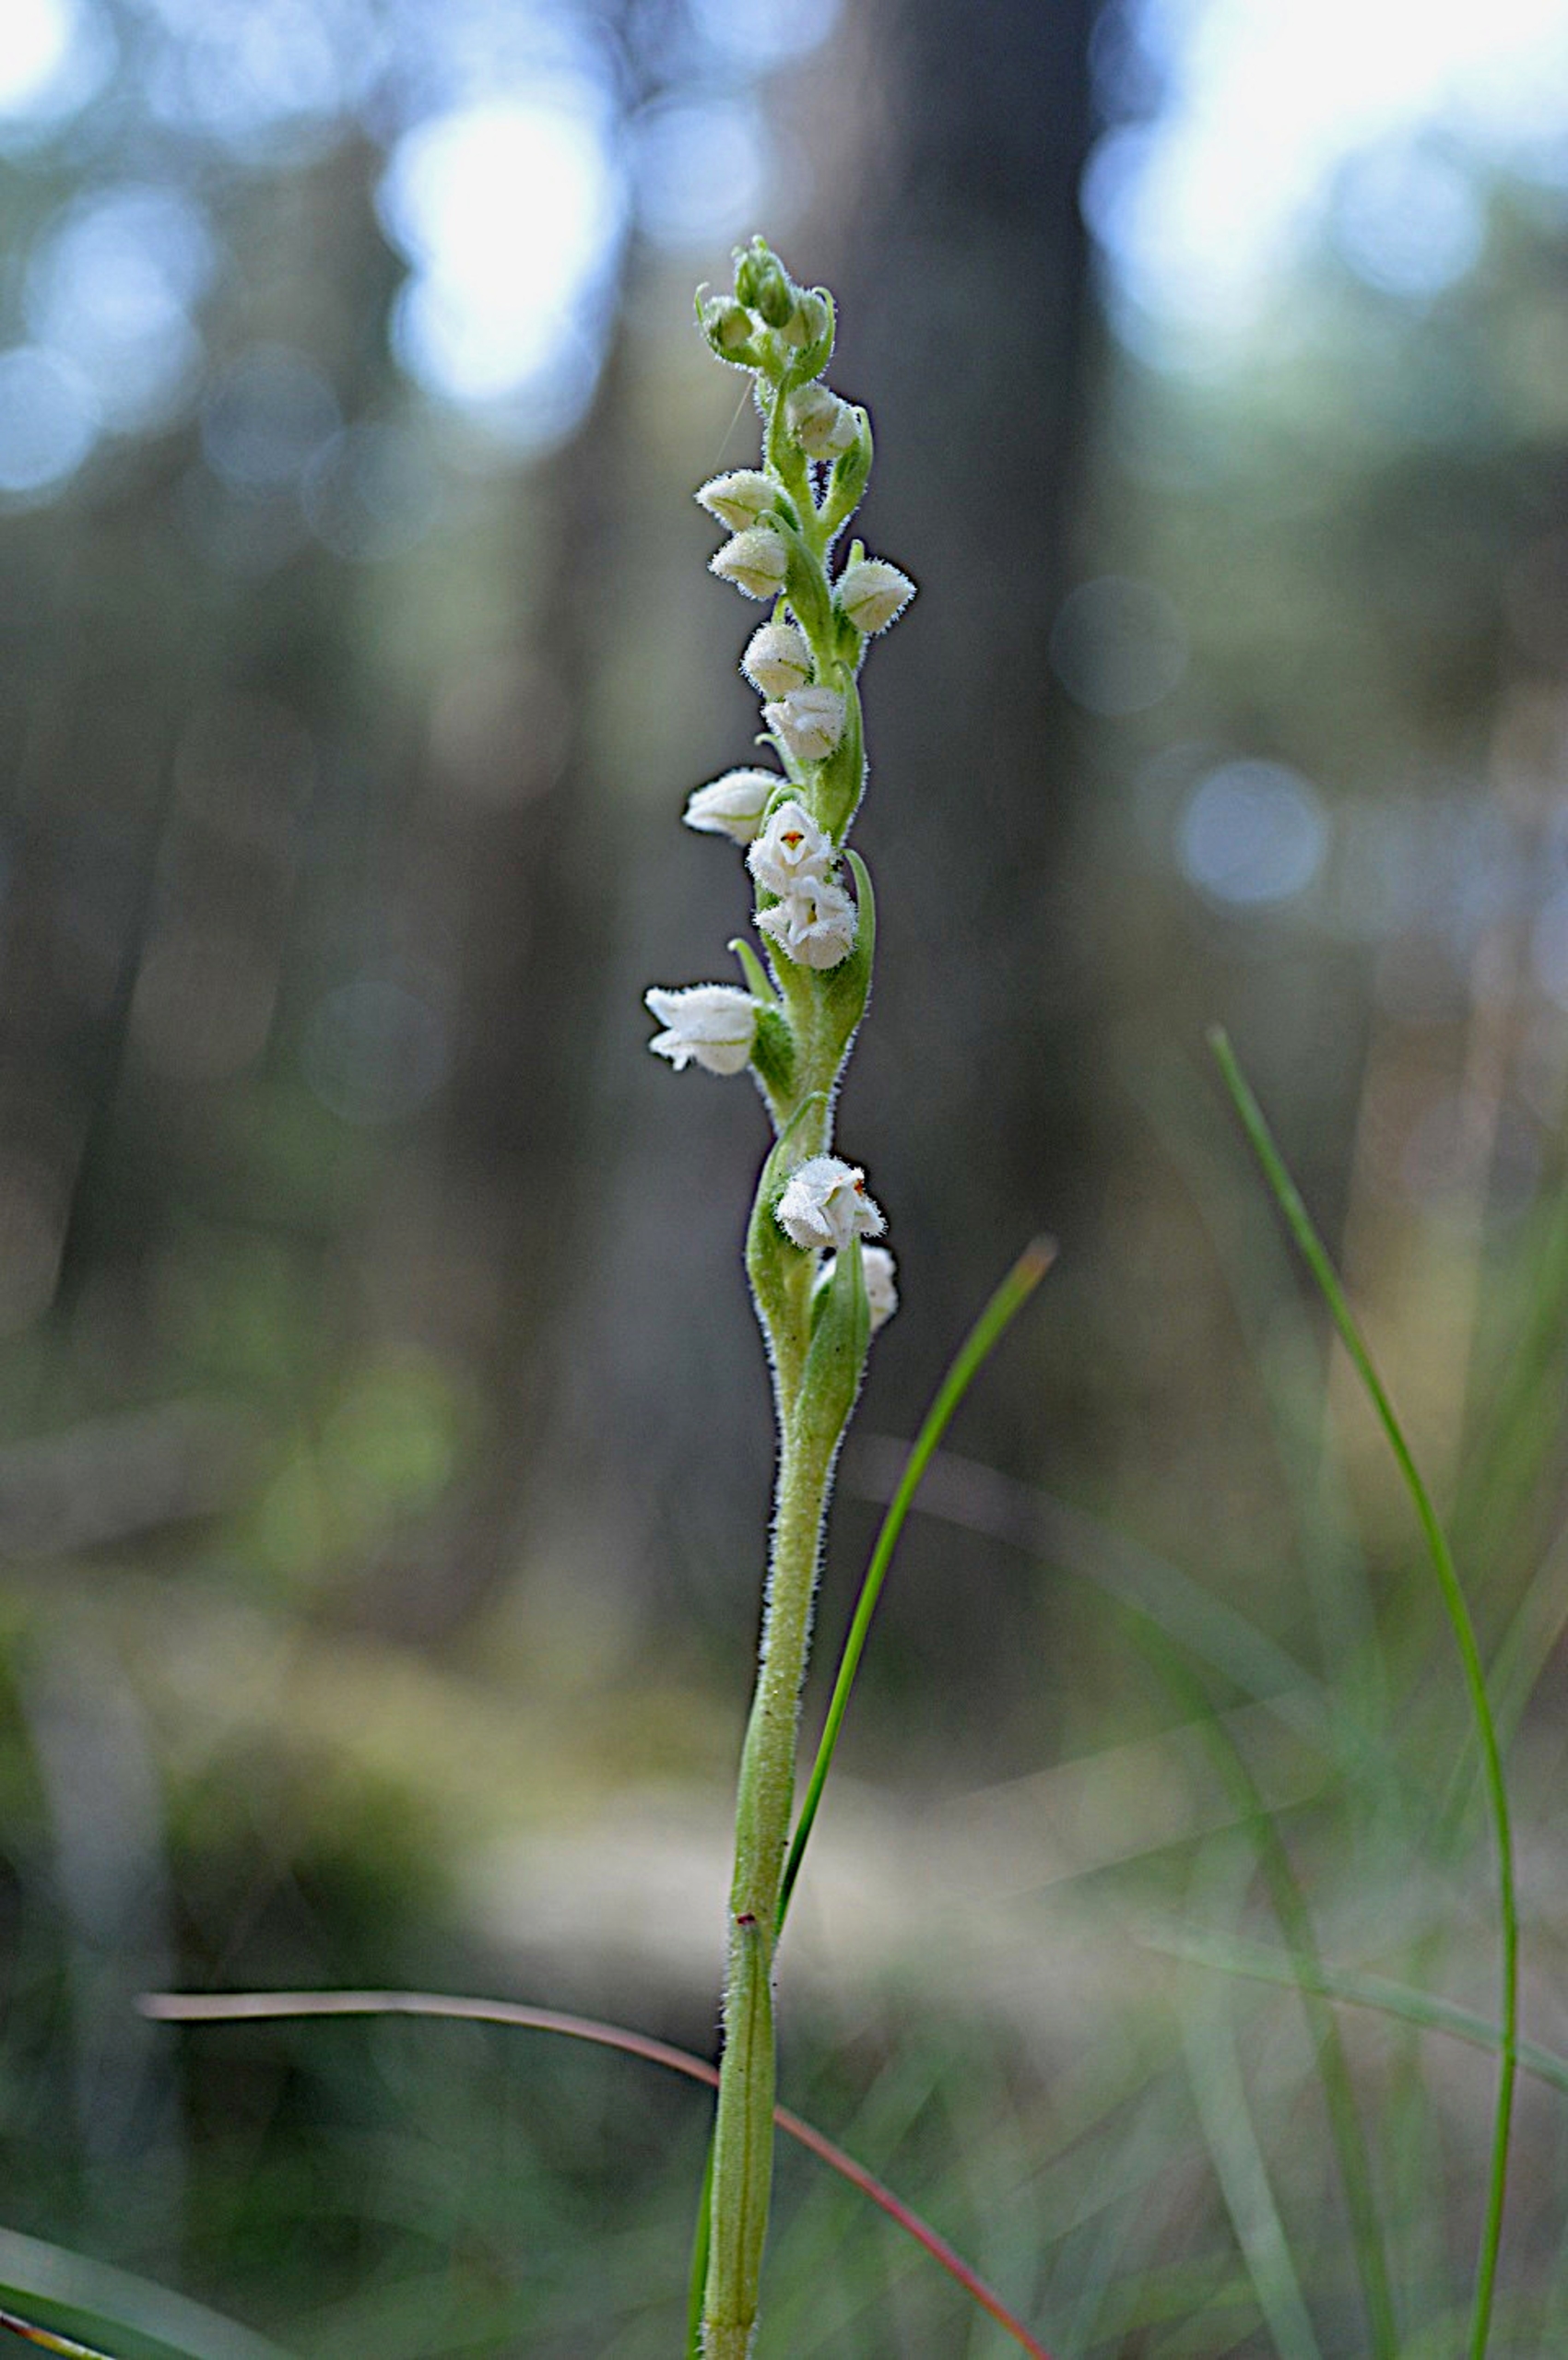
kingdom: Plantae
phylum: Tracheophyta
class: Liliopsida
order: Asparagales
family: Orchidaceae
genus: Goodyera
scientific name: Goodyera repens
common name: Knærod
